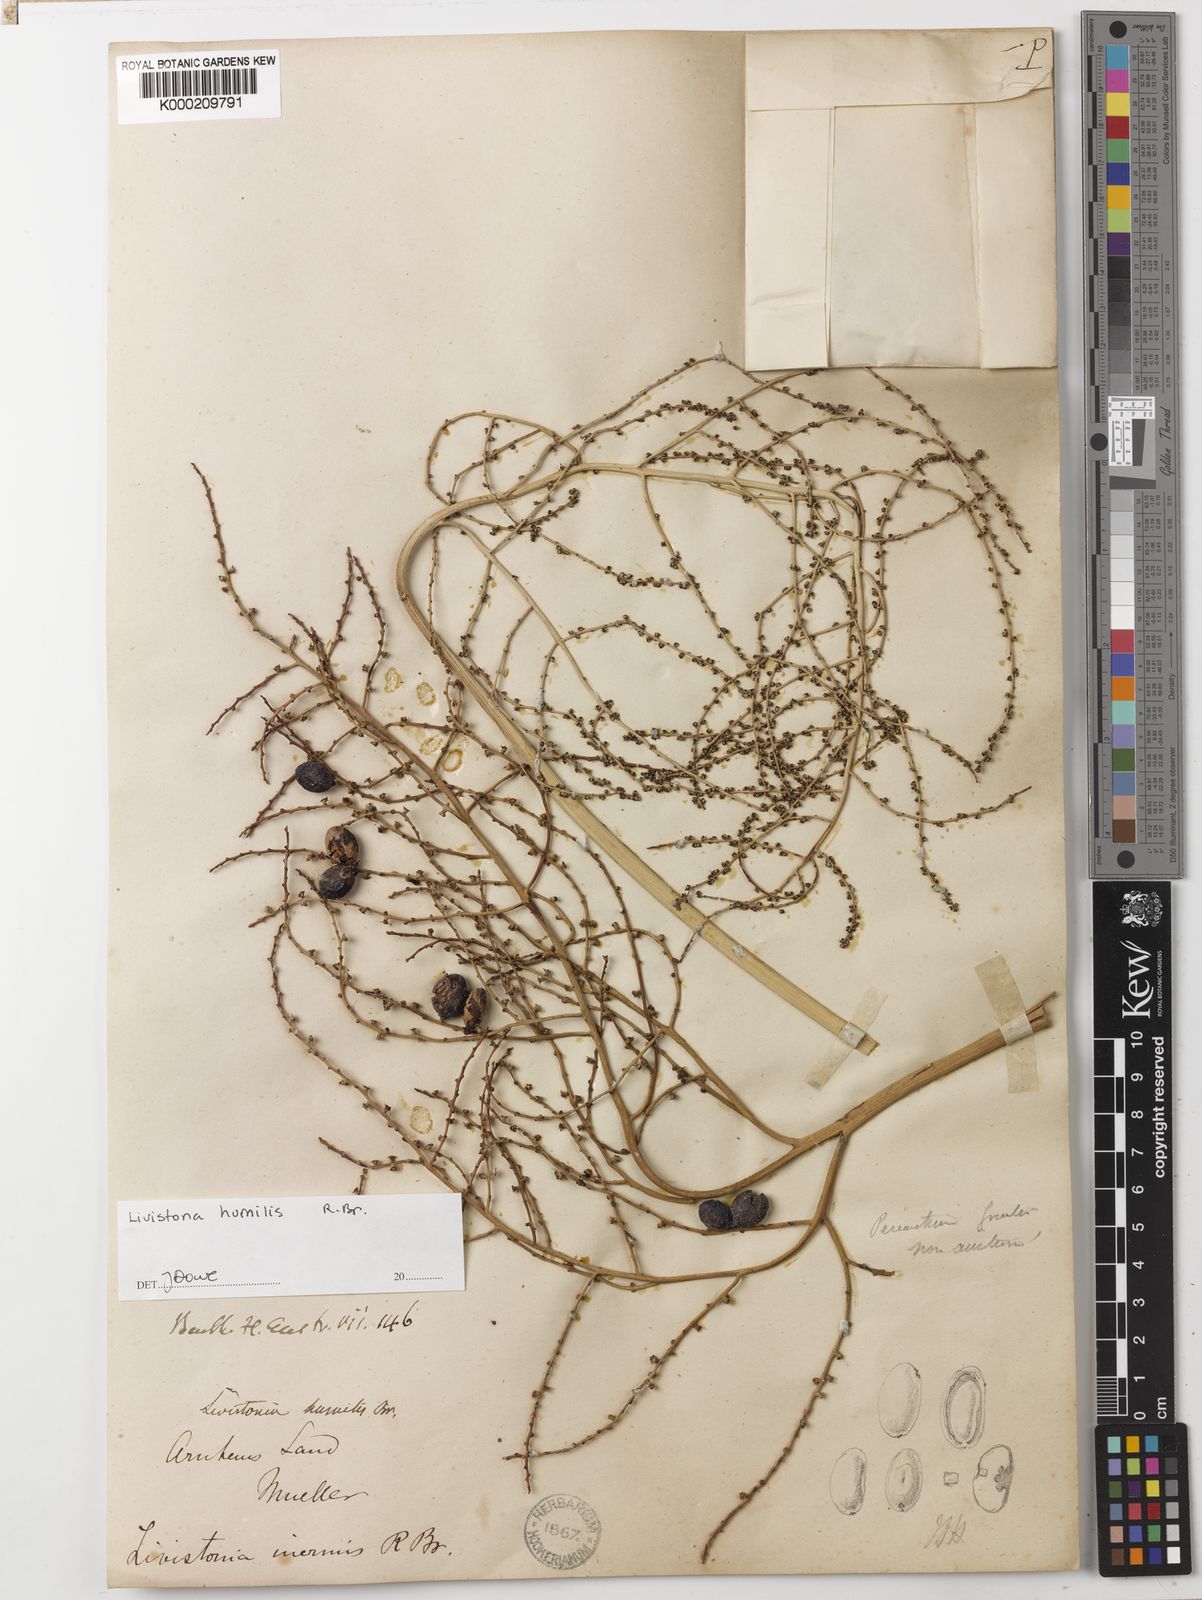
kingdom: Plantae
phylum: Tracheophyta
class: Liliopsida
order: Arecales
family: Arecaceae
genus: Livistona
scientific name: Livistona humilis
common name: Cabbage palm
